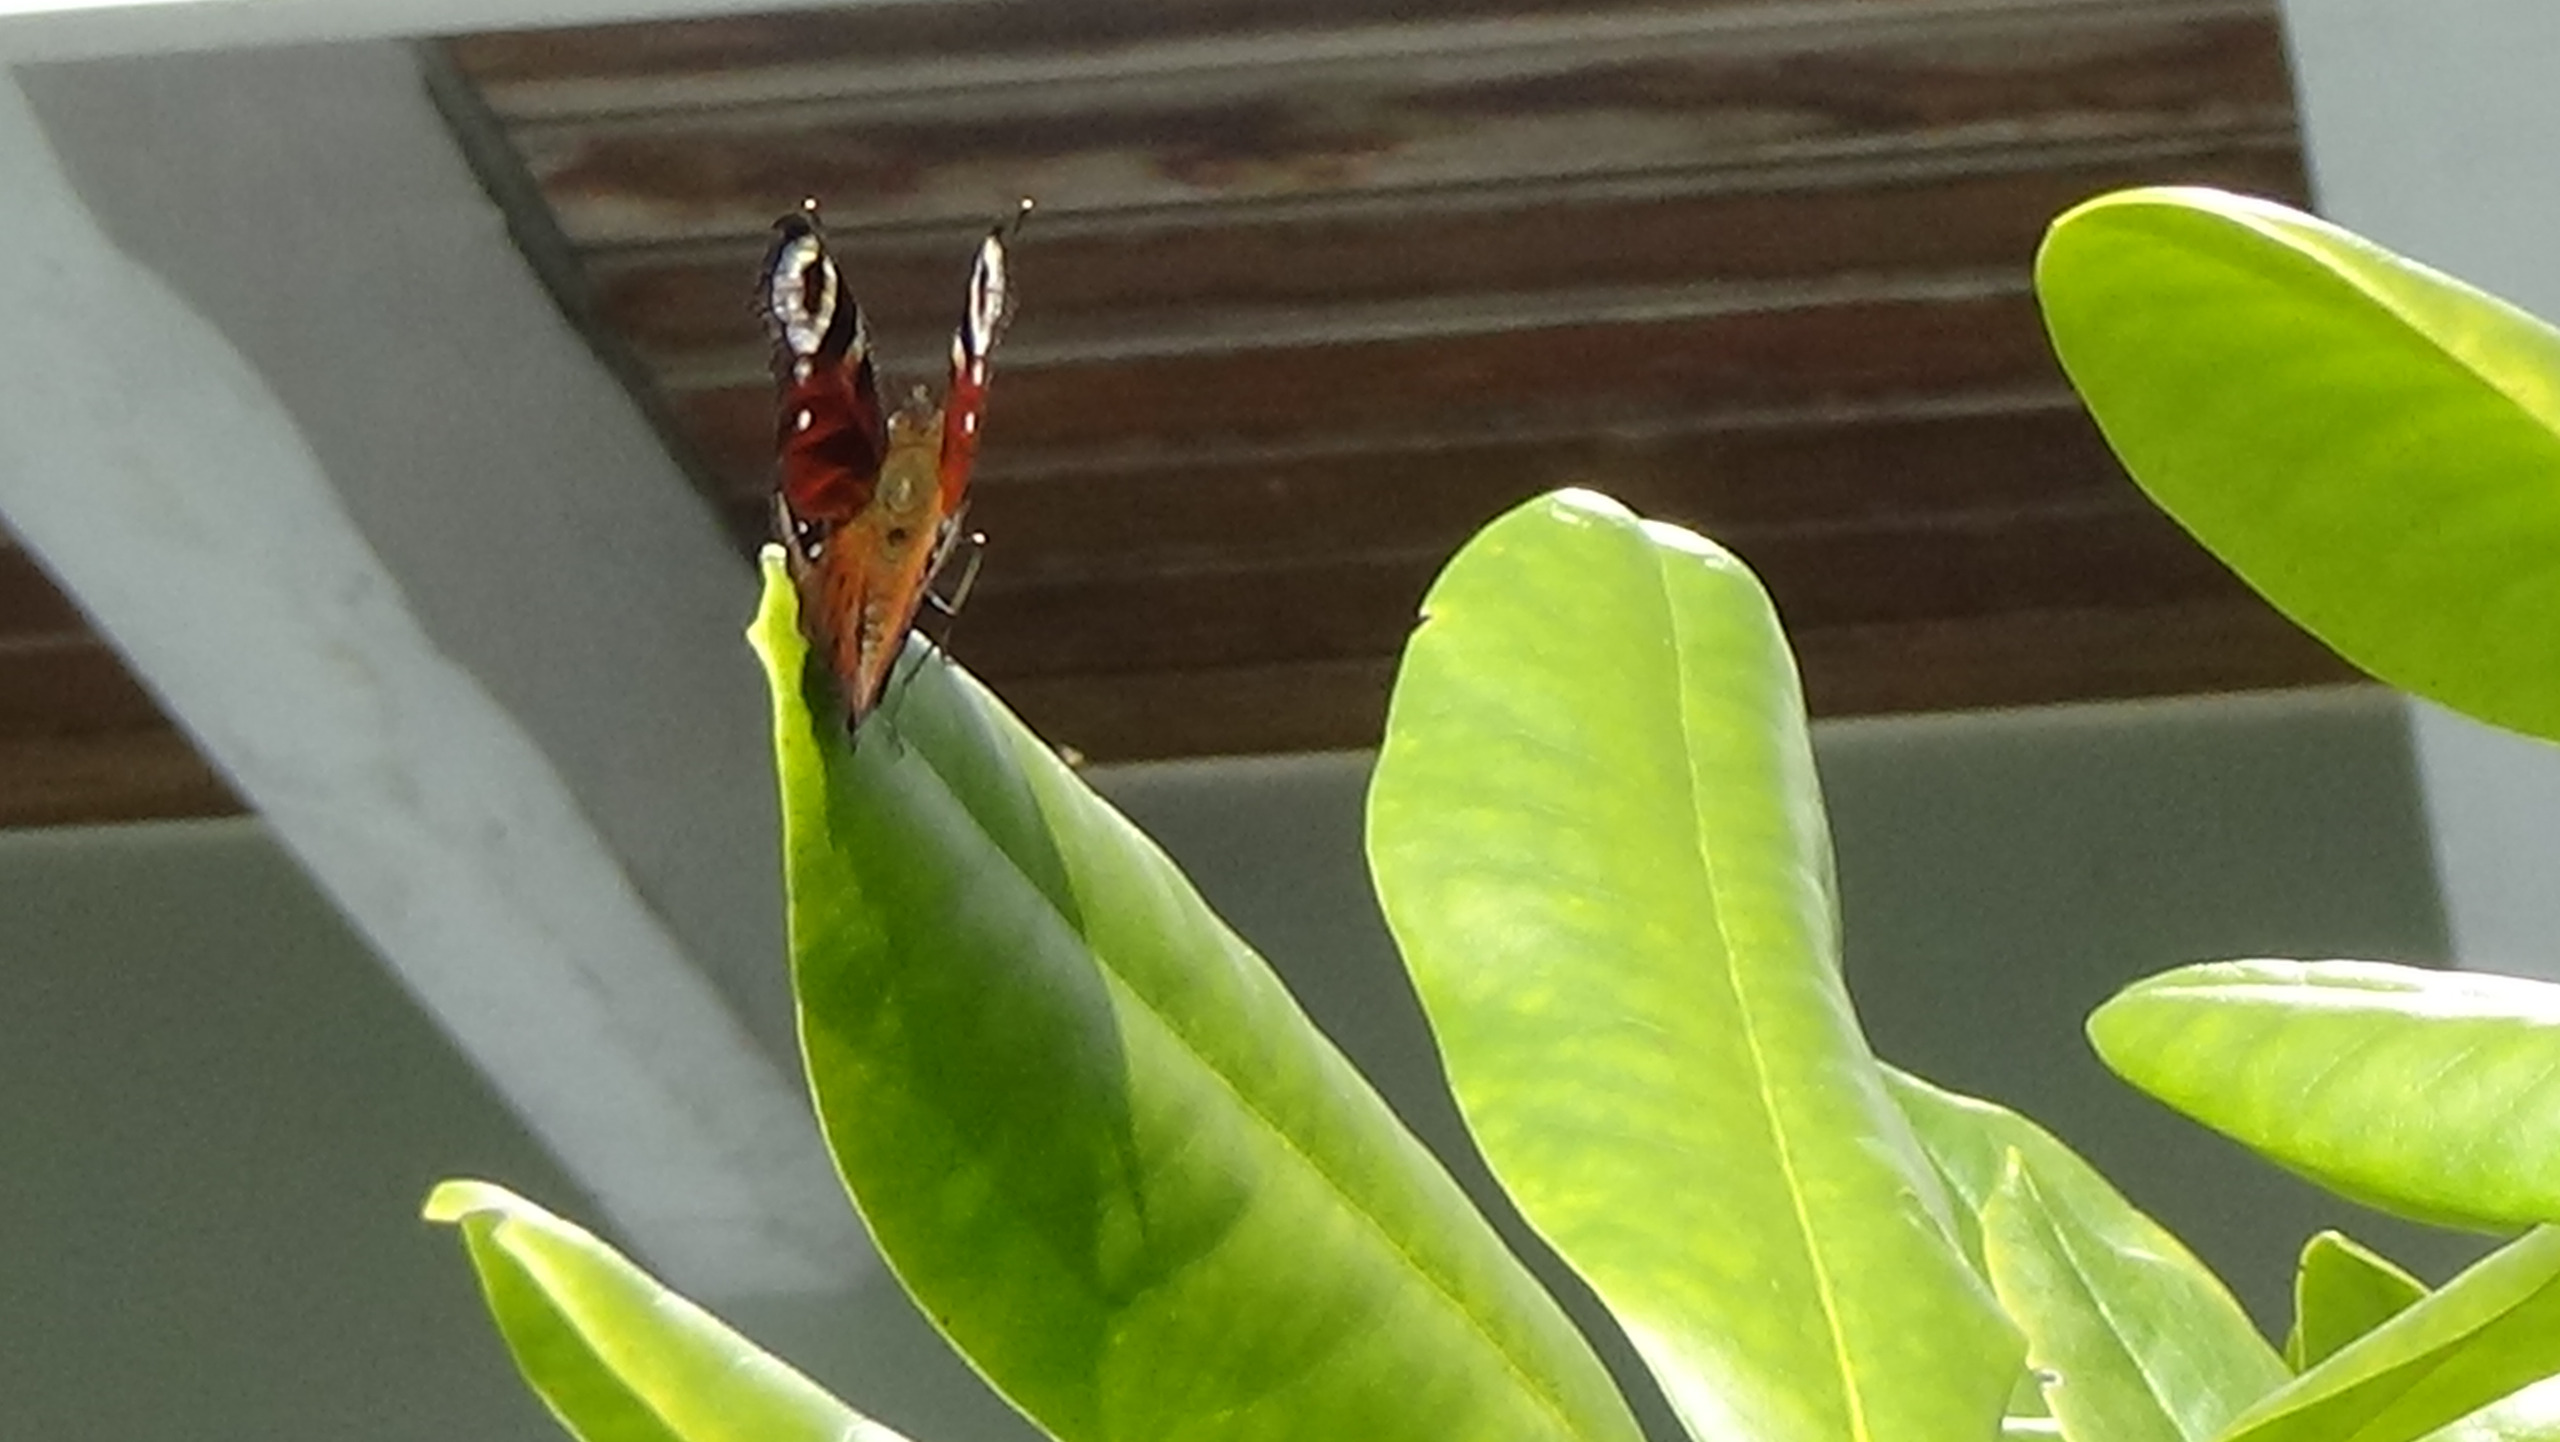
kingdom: Animalia
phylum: Arthropoda
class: Insecta
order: Lepidoptera
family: Nymphalidae
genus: Aglais
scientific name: Aglais io
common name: Dagpåfugleøje
